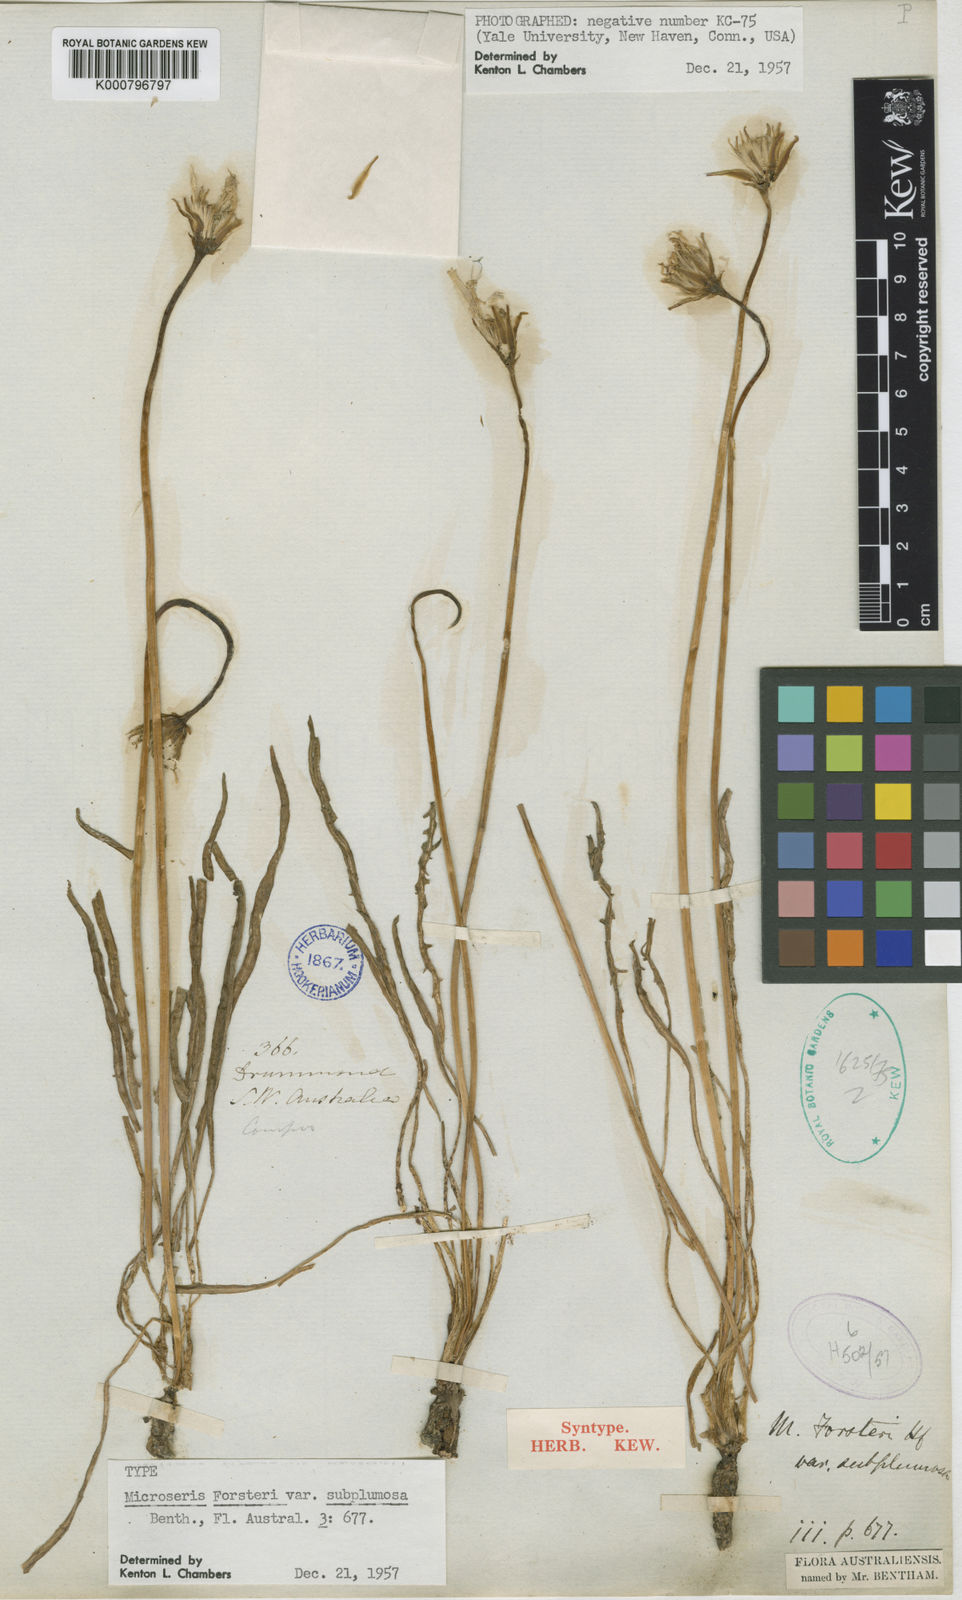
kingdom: Plantae
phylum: Tracheophyta
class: Magnoliopsida
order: Asterales
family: Asteraceae
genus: Microseris
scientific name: Microseris scapigera
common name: Yam daisy
